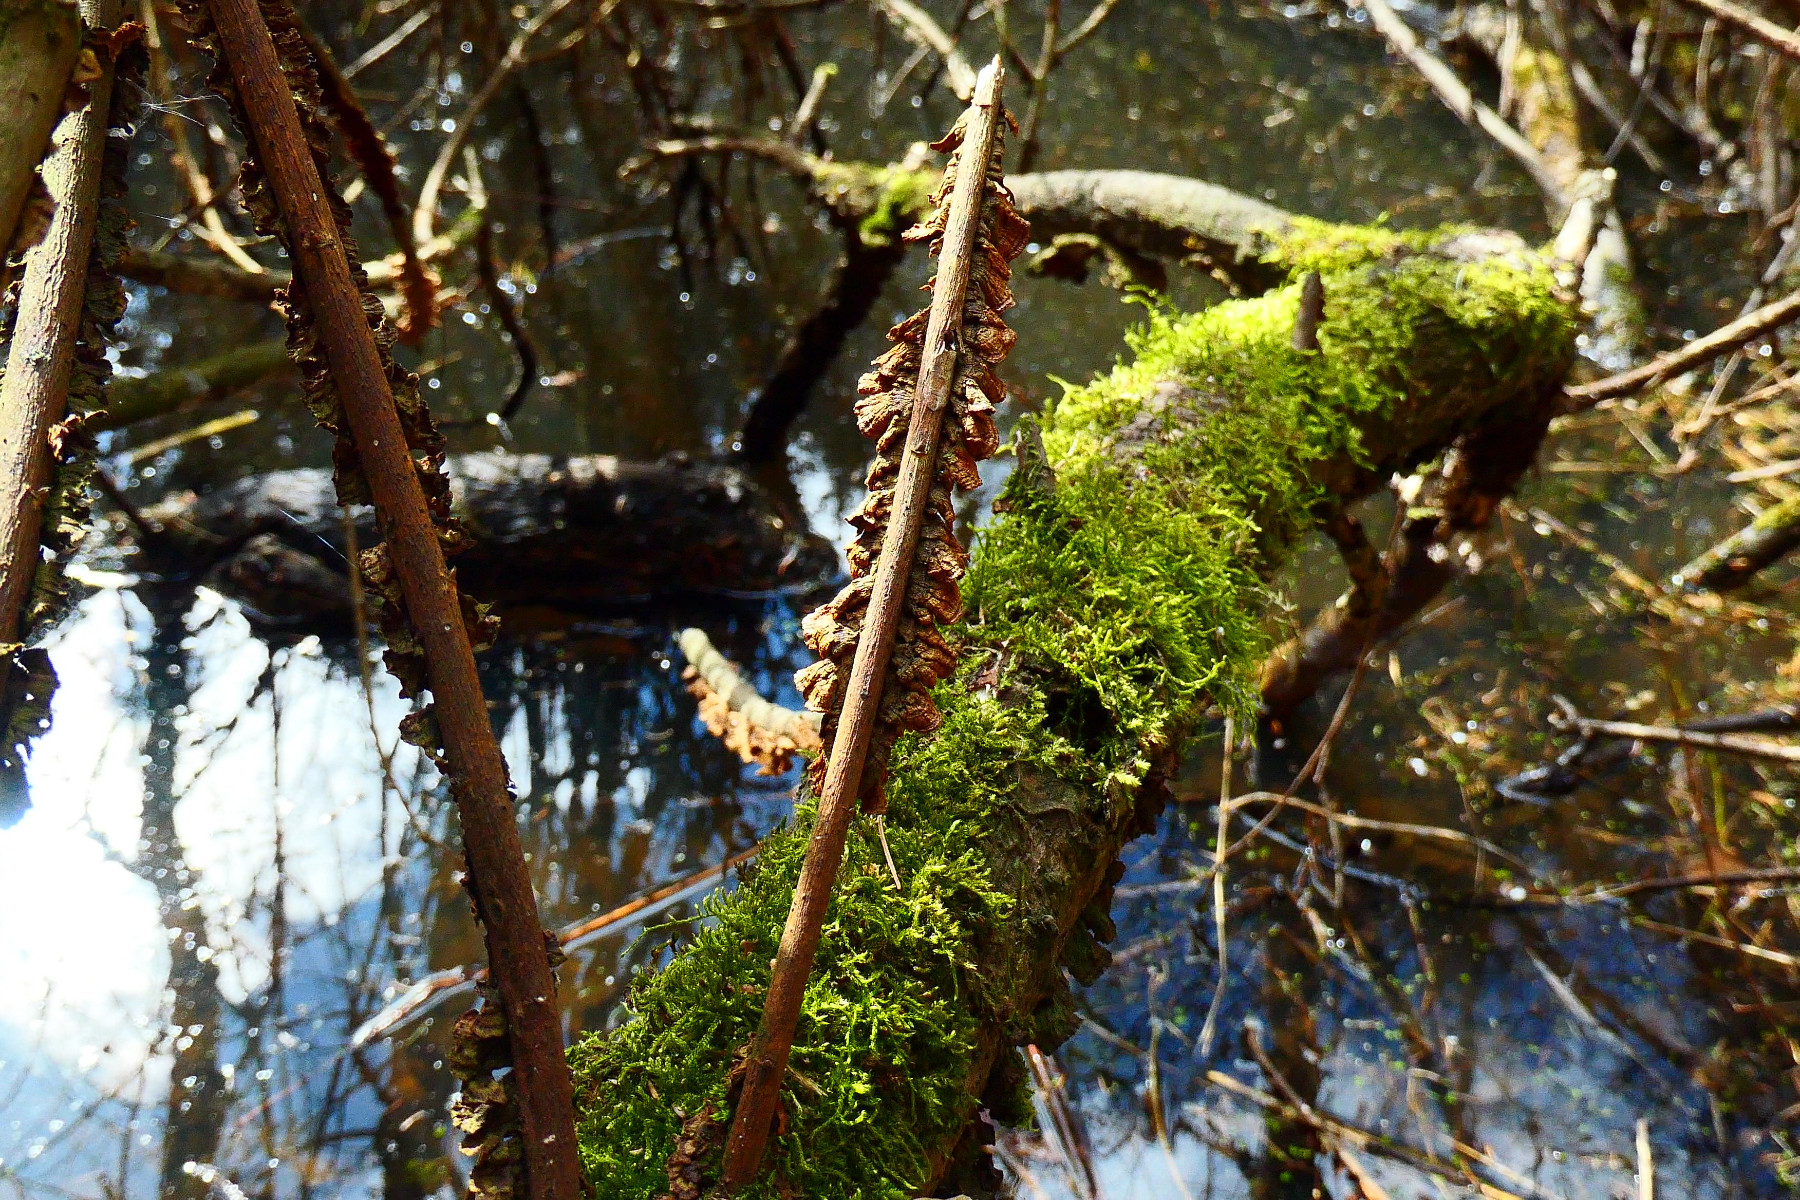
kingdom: Fungi
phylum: Basidiomycota
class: Agaricomycetes
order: Hymenochaetales
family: Hymenochaetaceae
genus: Hydnoporia
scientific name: Hydnoporia tabacina
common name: tobaksbrun ruslædersvamp
